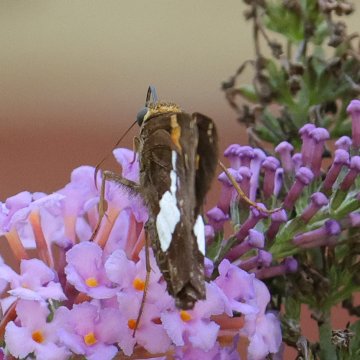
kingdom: Animalia
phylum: Arthropoda
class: Insecta
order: Lepidoptera
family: Hesperiidae
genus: Epargyreus
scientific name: Epargyreus clarus
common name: Silver-spotted Skipper
